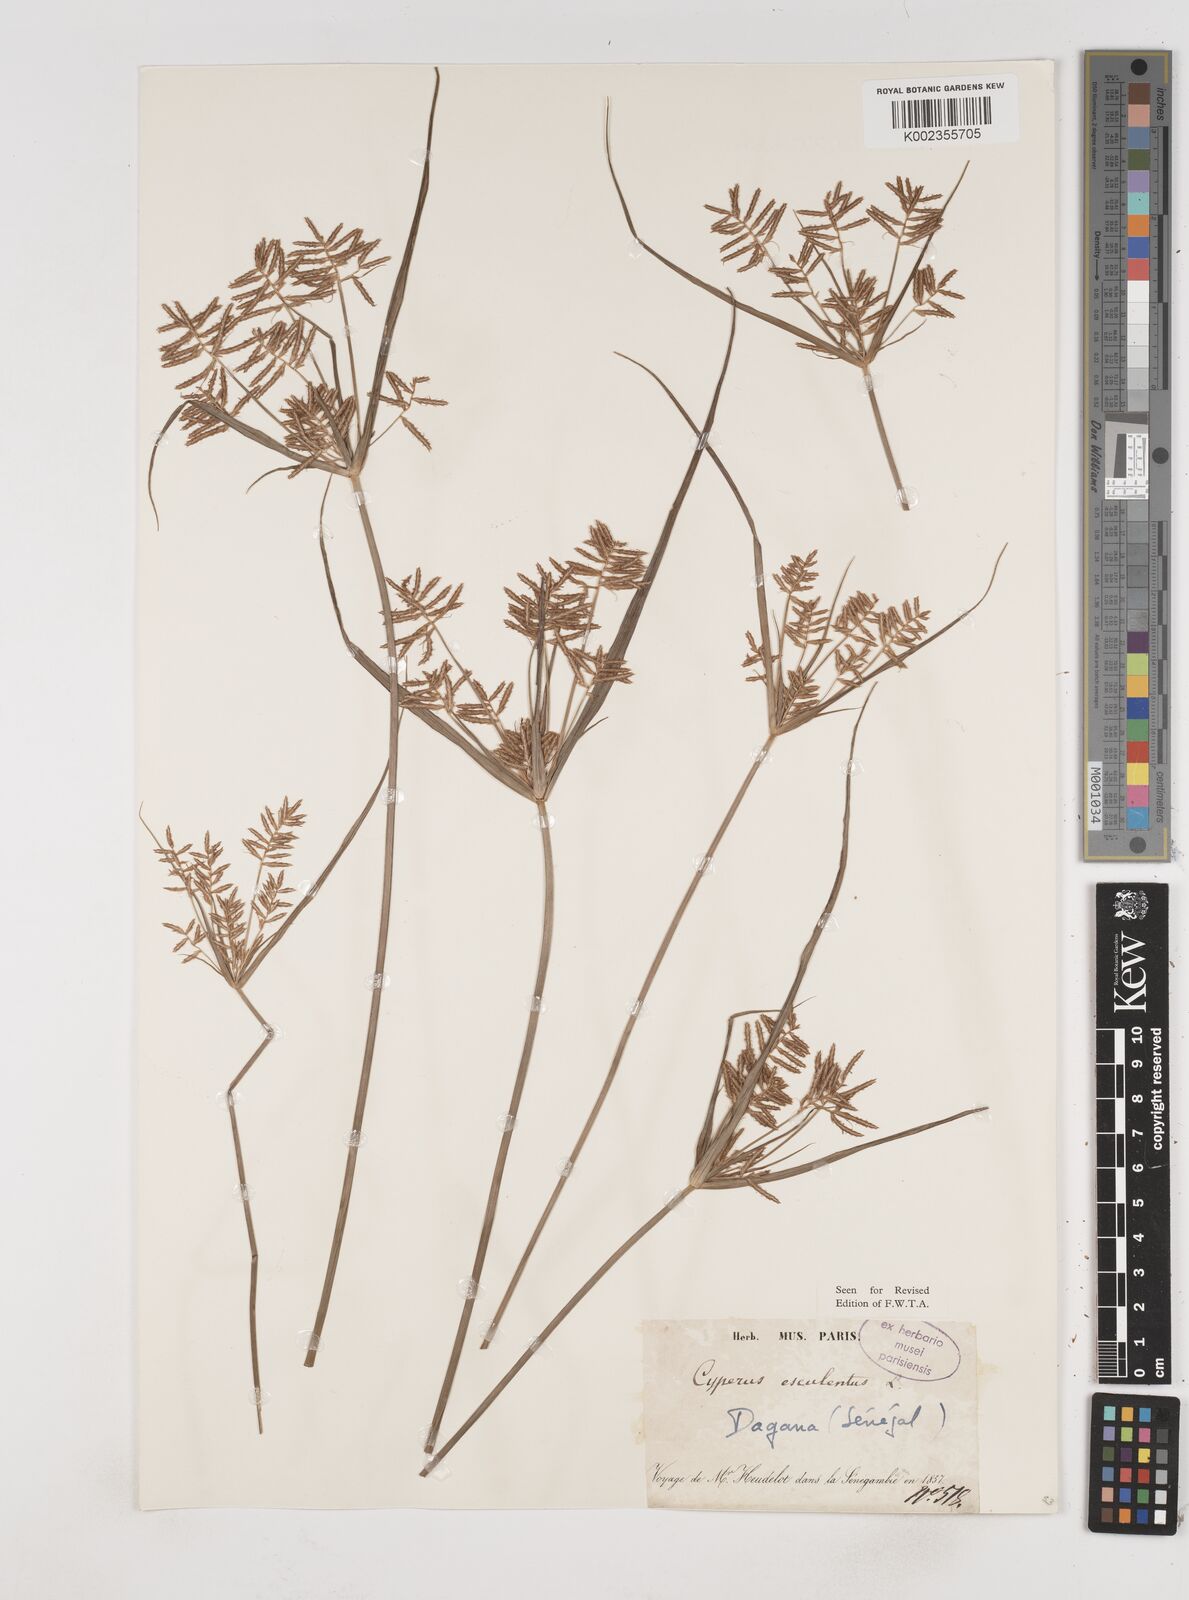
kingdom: Plantae
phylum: Tracheophyta
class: Liliopsida
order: Poales
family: Cyperaceae
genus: Cyperus
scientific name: Cyperus esculentus
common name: Yellow nutsedge
